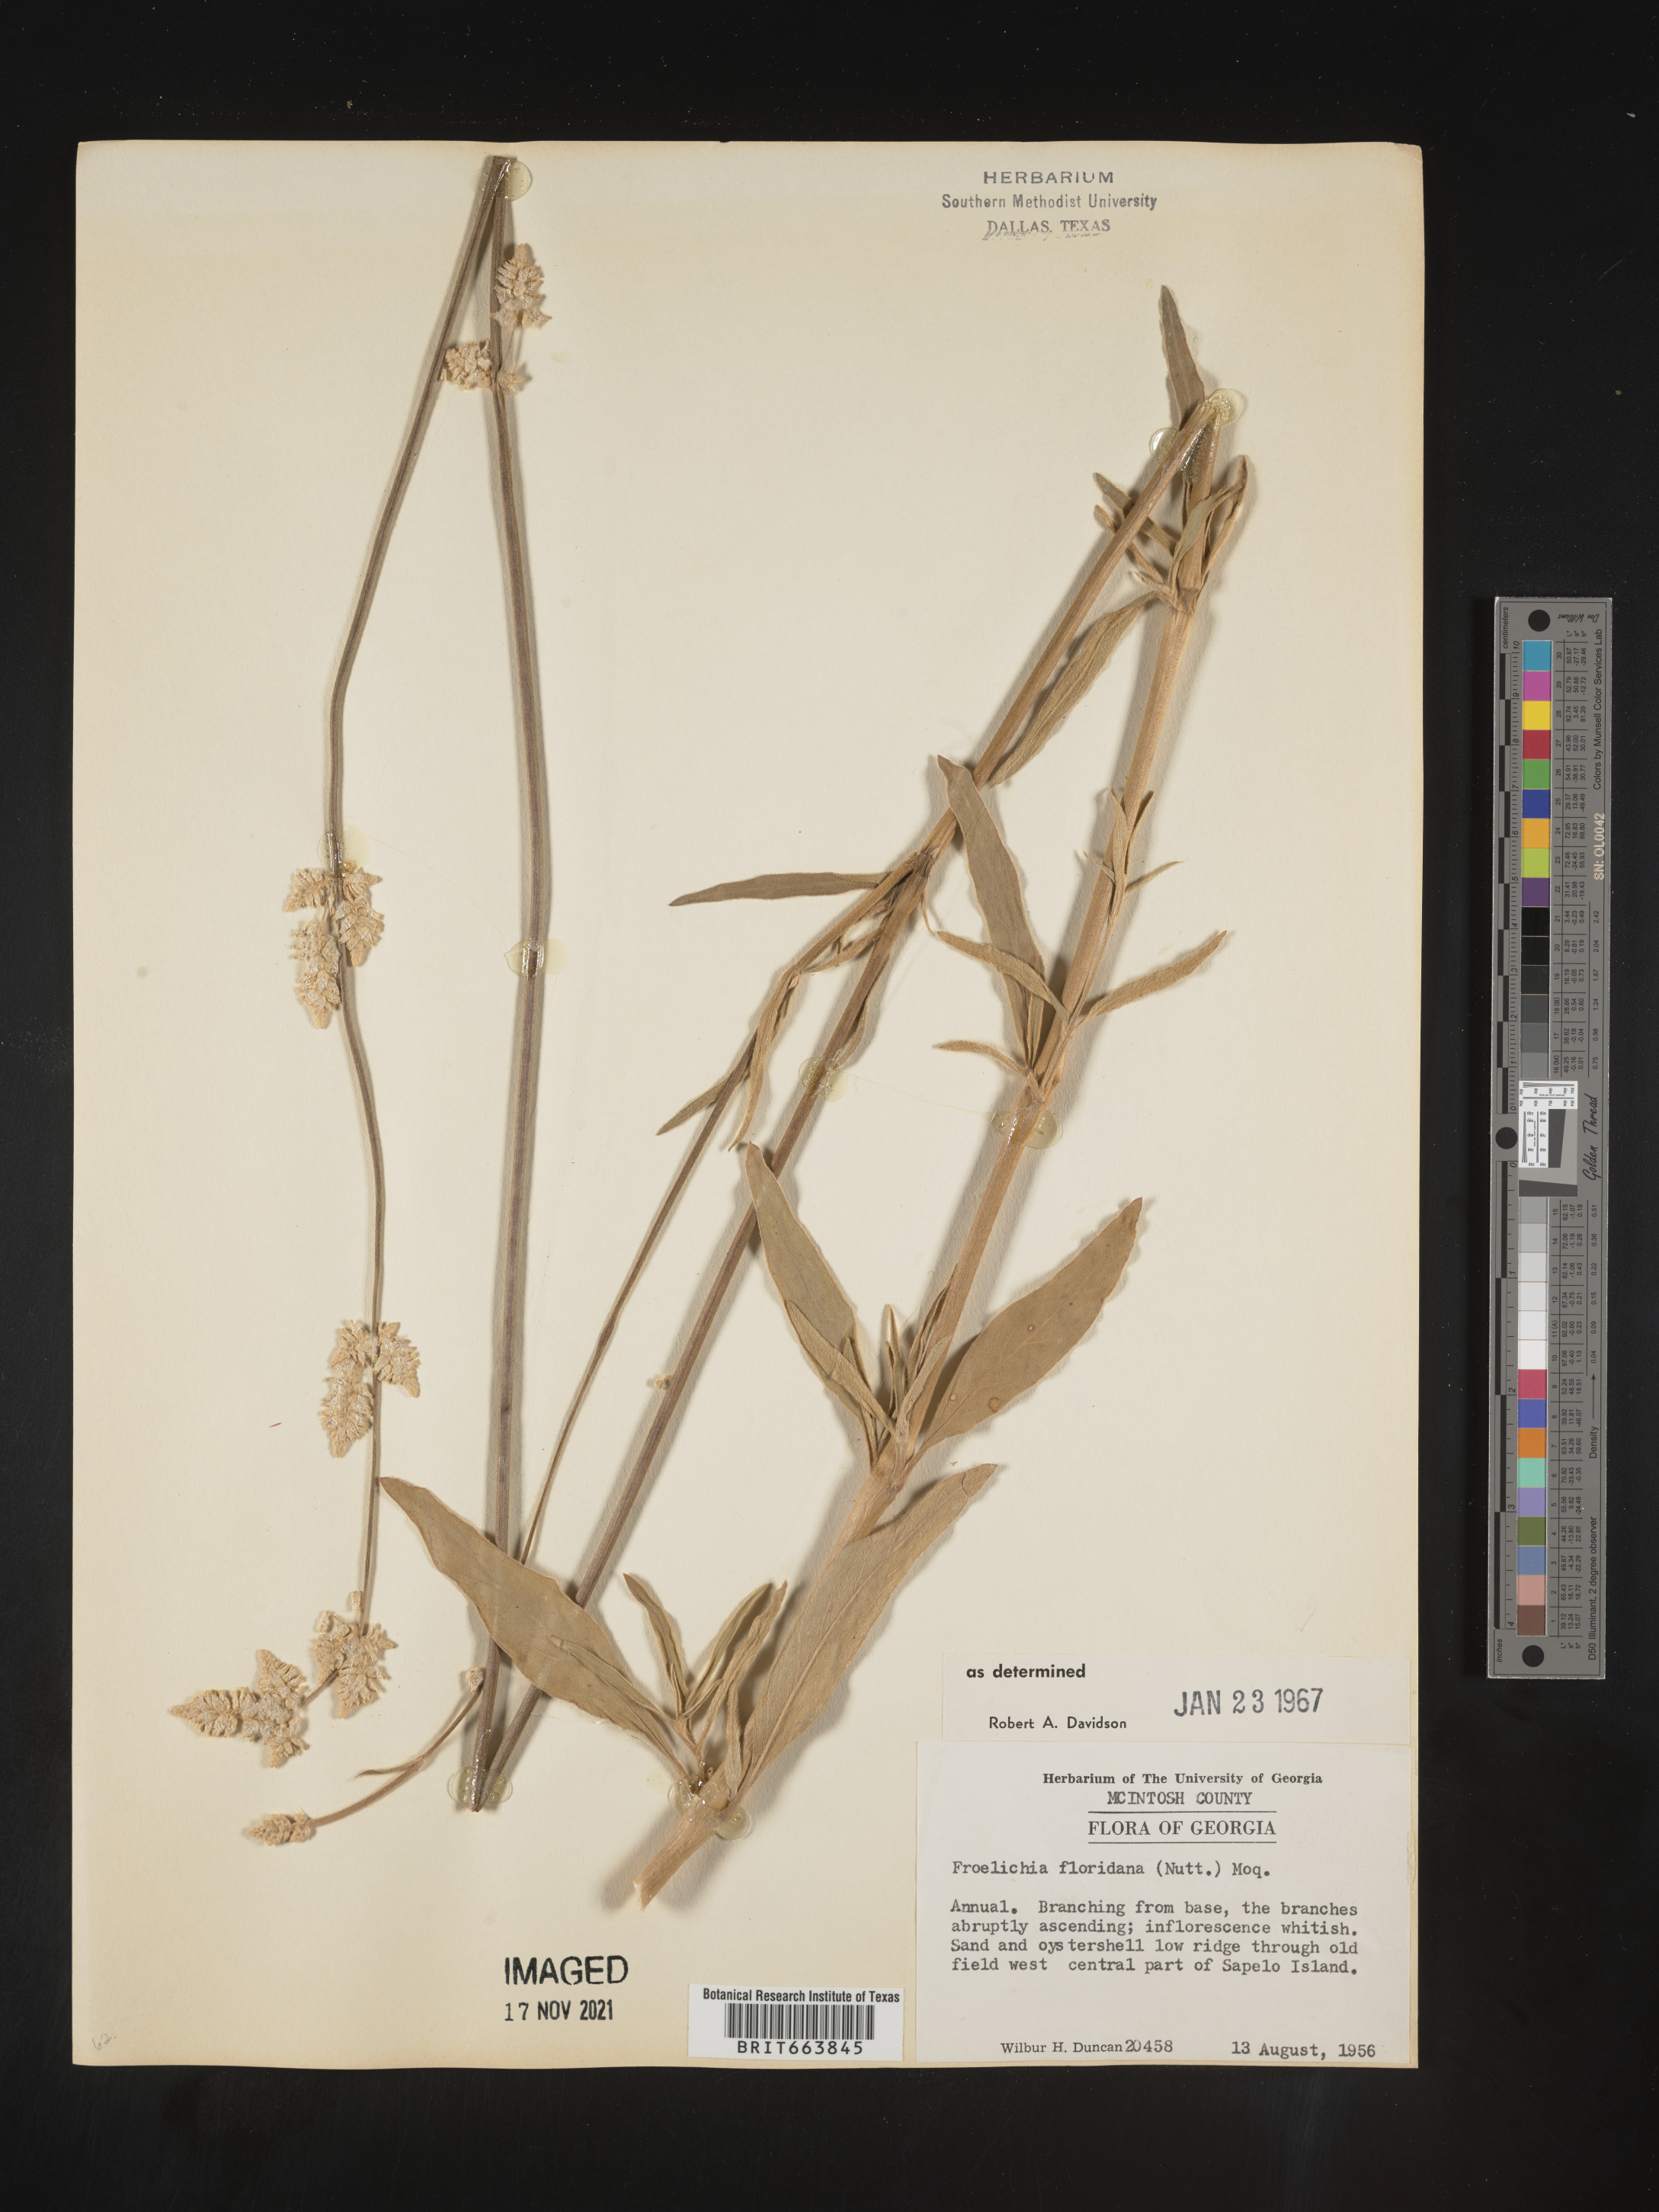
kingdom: Plantae
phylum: Tracheophyta
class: Magnoliopsida
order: Caryophyllales
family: Amaranthaceae
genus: Froelichia
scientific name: Froelichia floridana
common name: Florida snake-cotton
